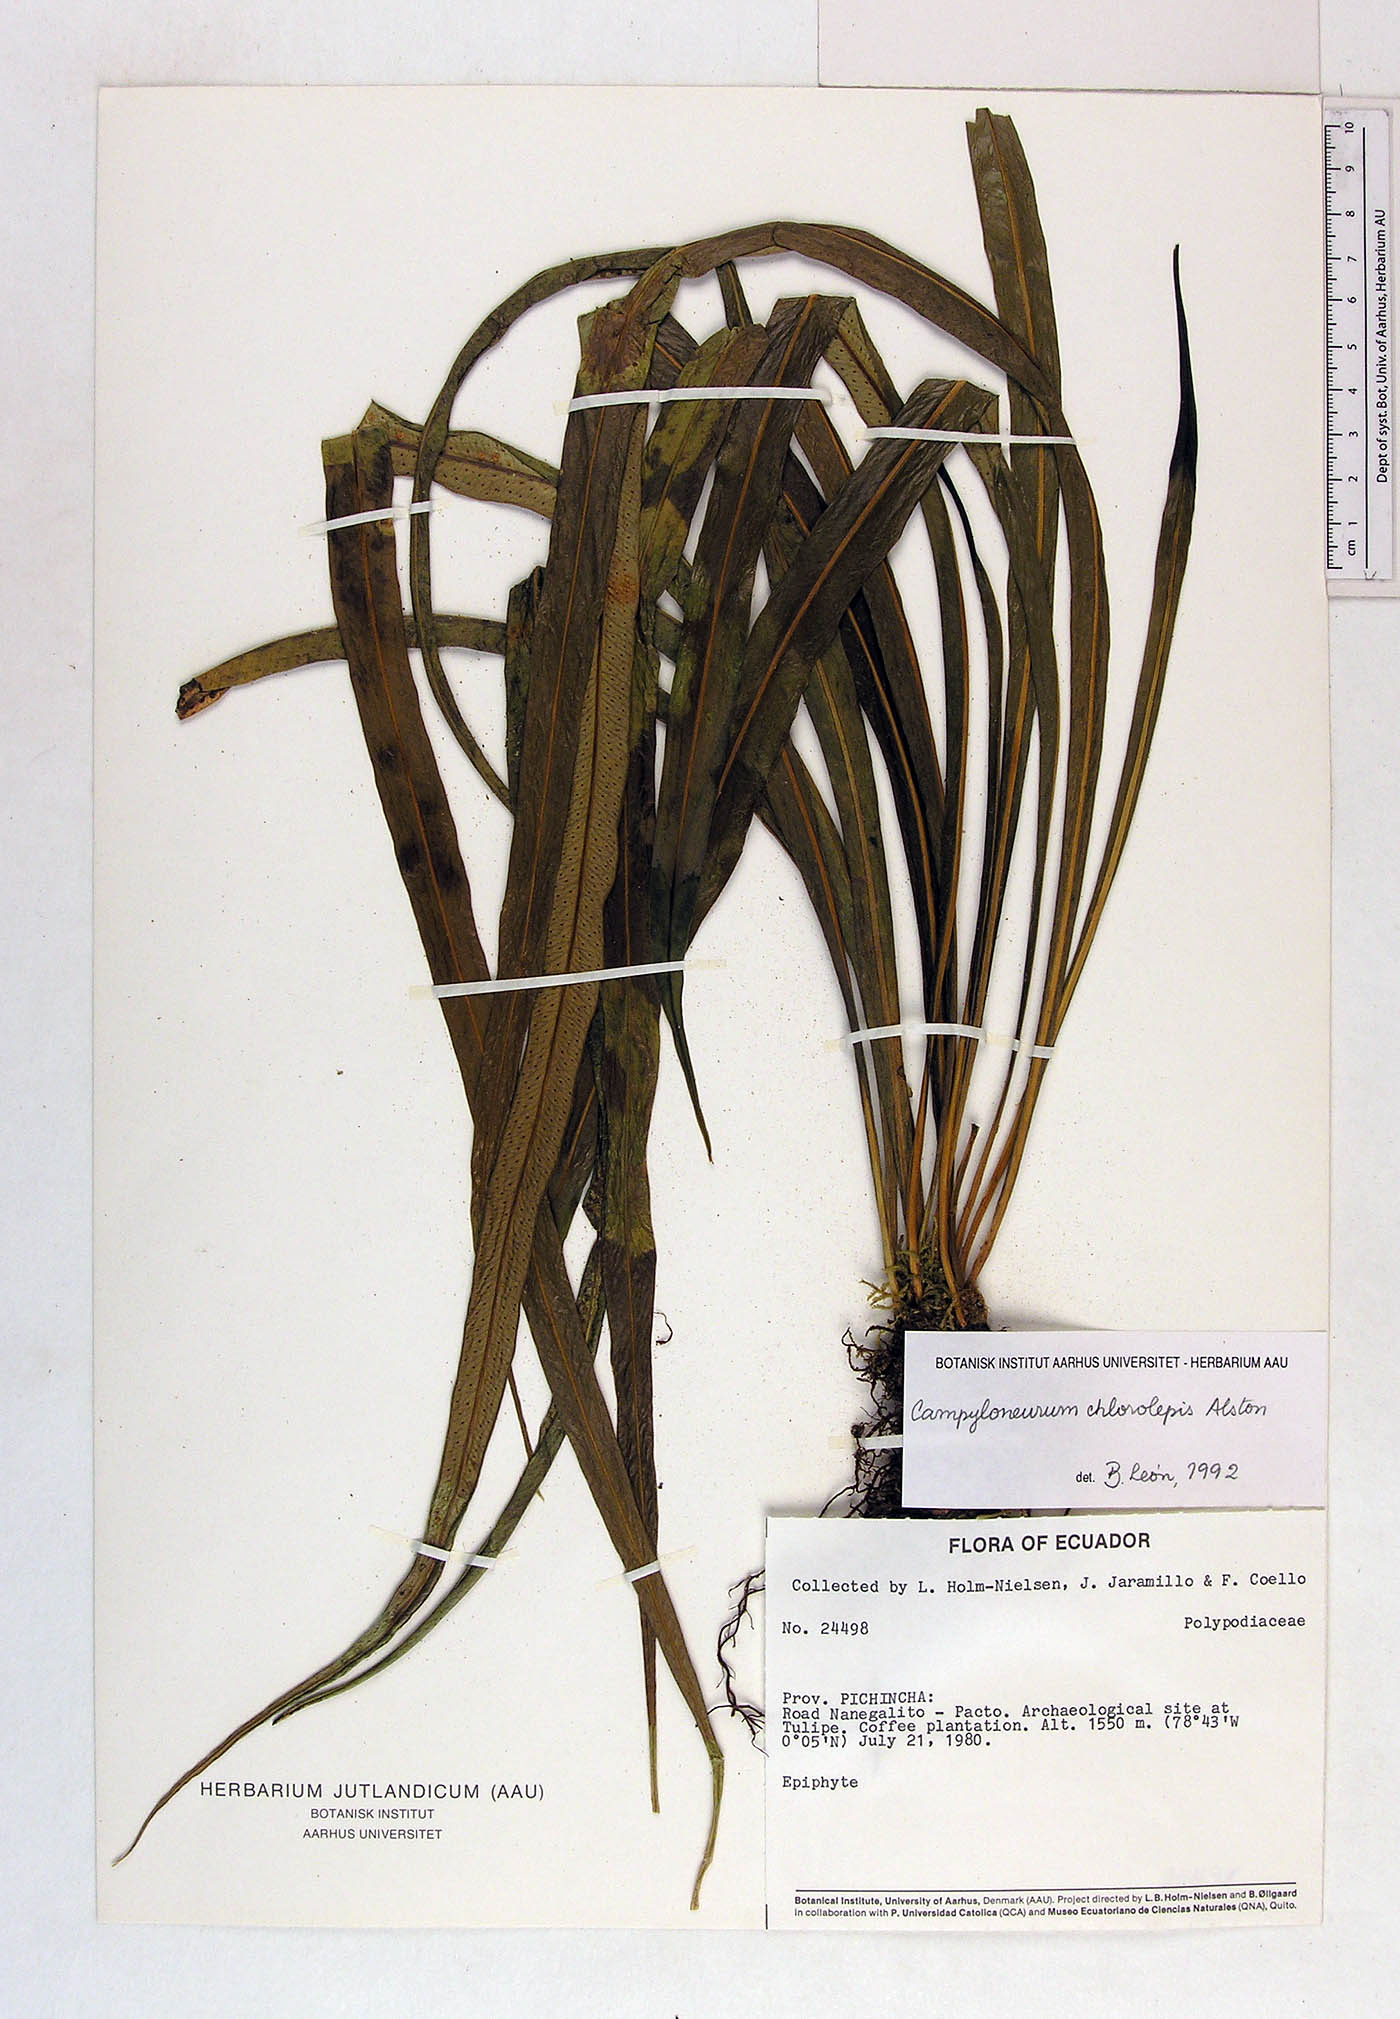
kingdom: Plantae
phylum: Tracheophyta
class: Polypodiopsida
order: Polypodiales
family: Polypodiaceae
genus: Campyloneurum
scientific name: Campyloneurum angustifolium
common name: Narrow-leaf strap fern
